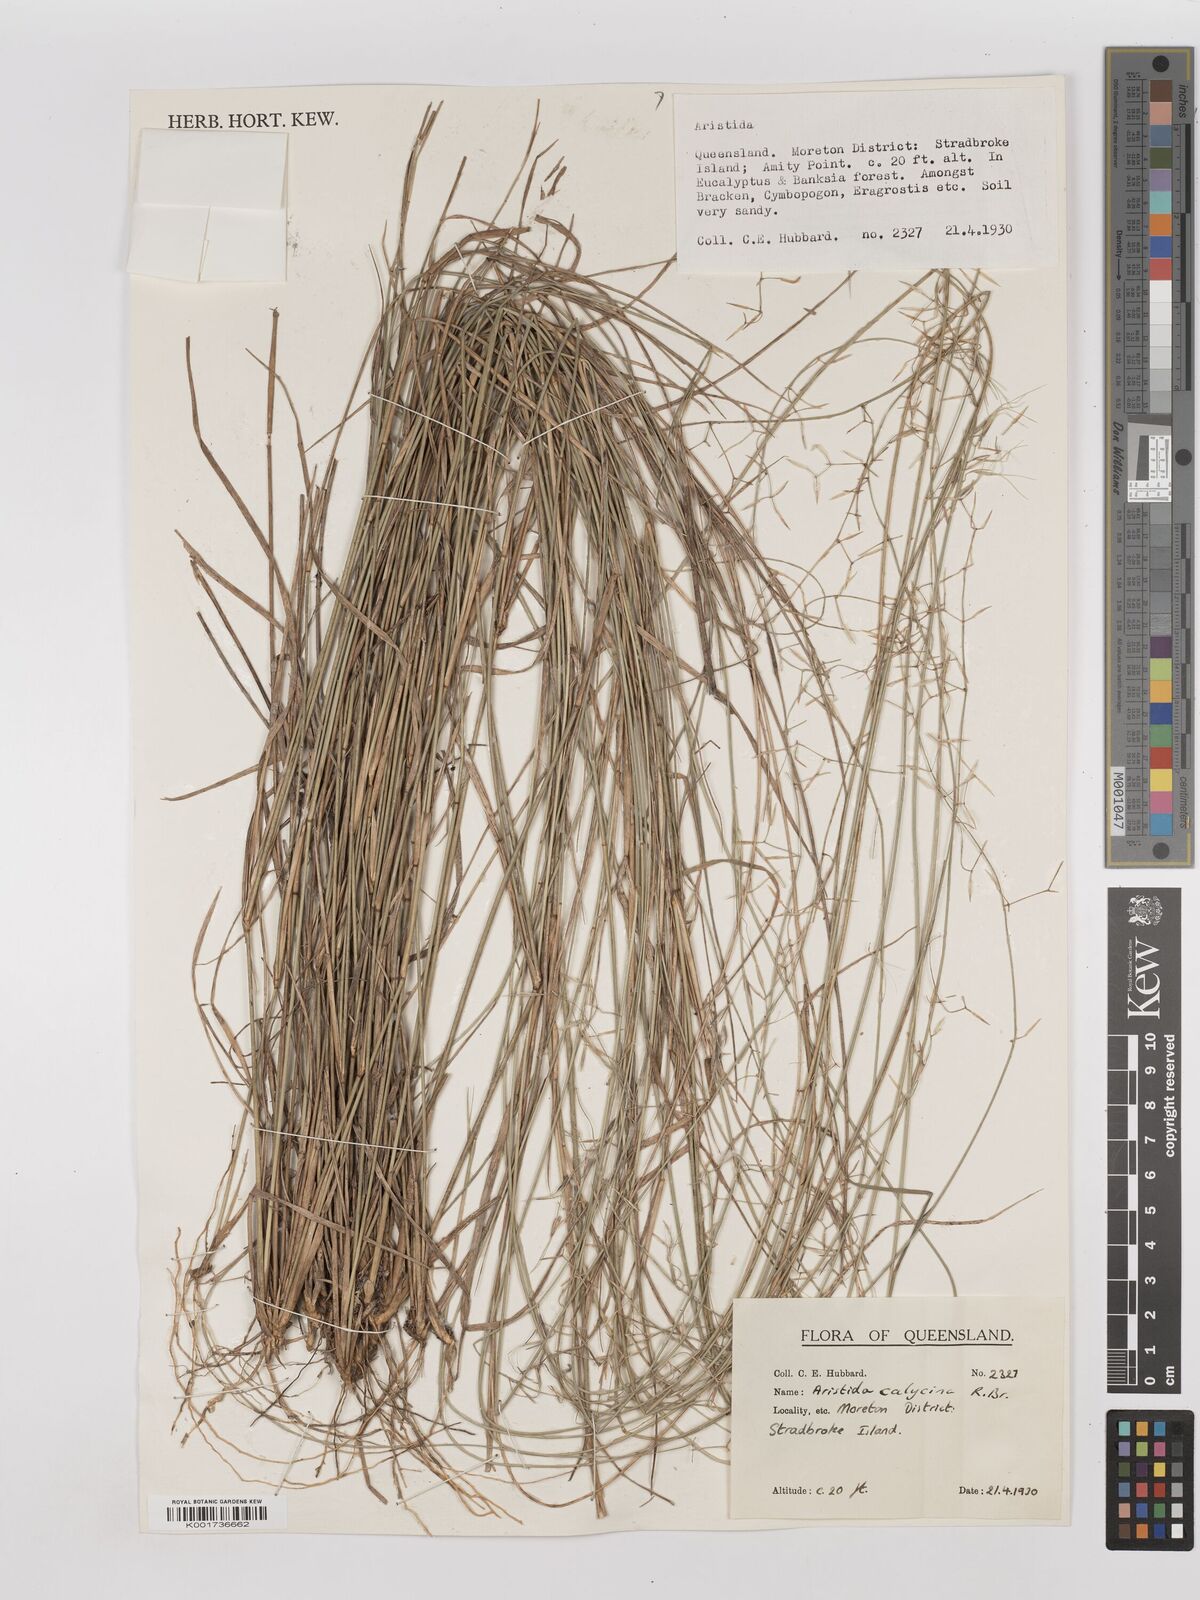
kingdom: Plantae
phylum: Tracheophyta
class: Liliopsida
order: Poales
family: Poaceae
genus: Aristida
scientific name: Aristida calycina
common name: Dark wire grass
